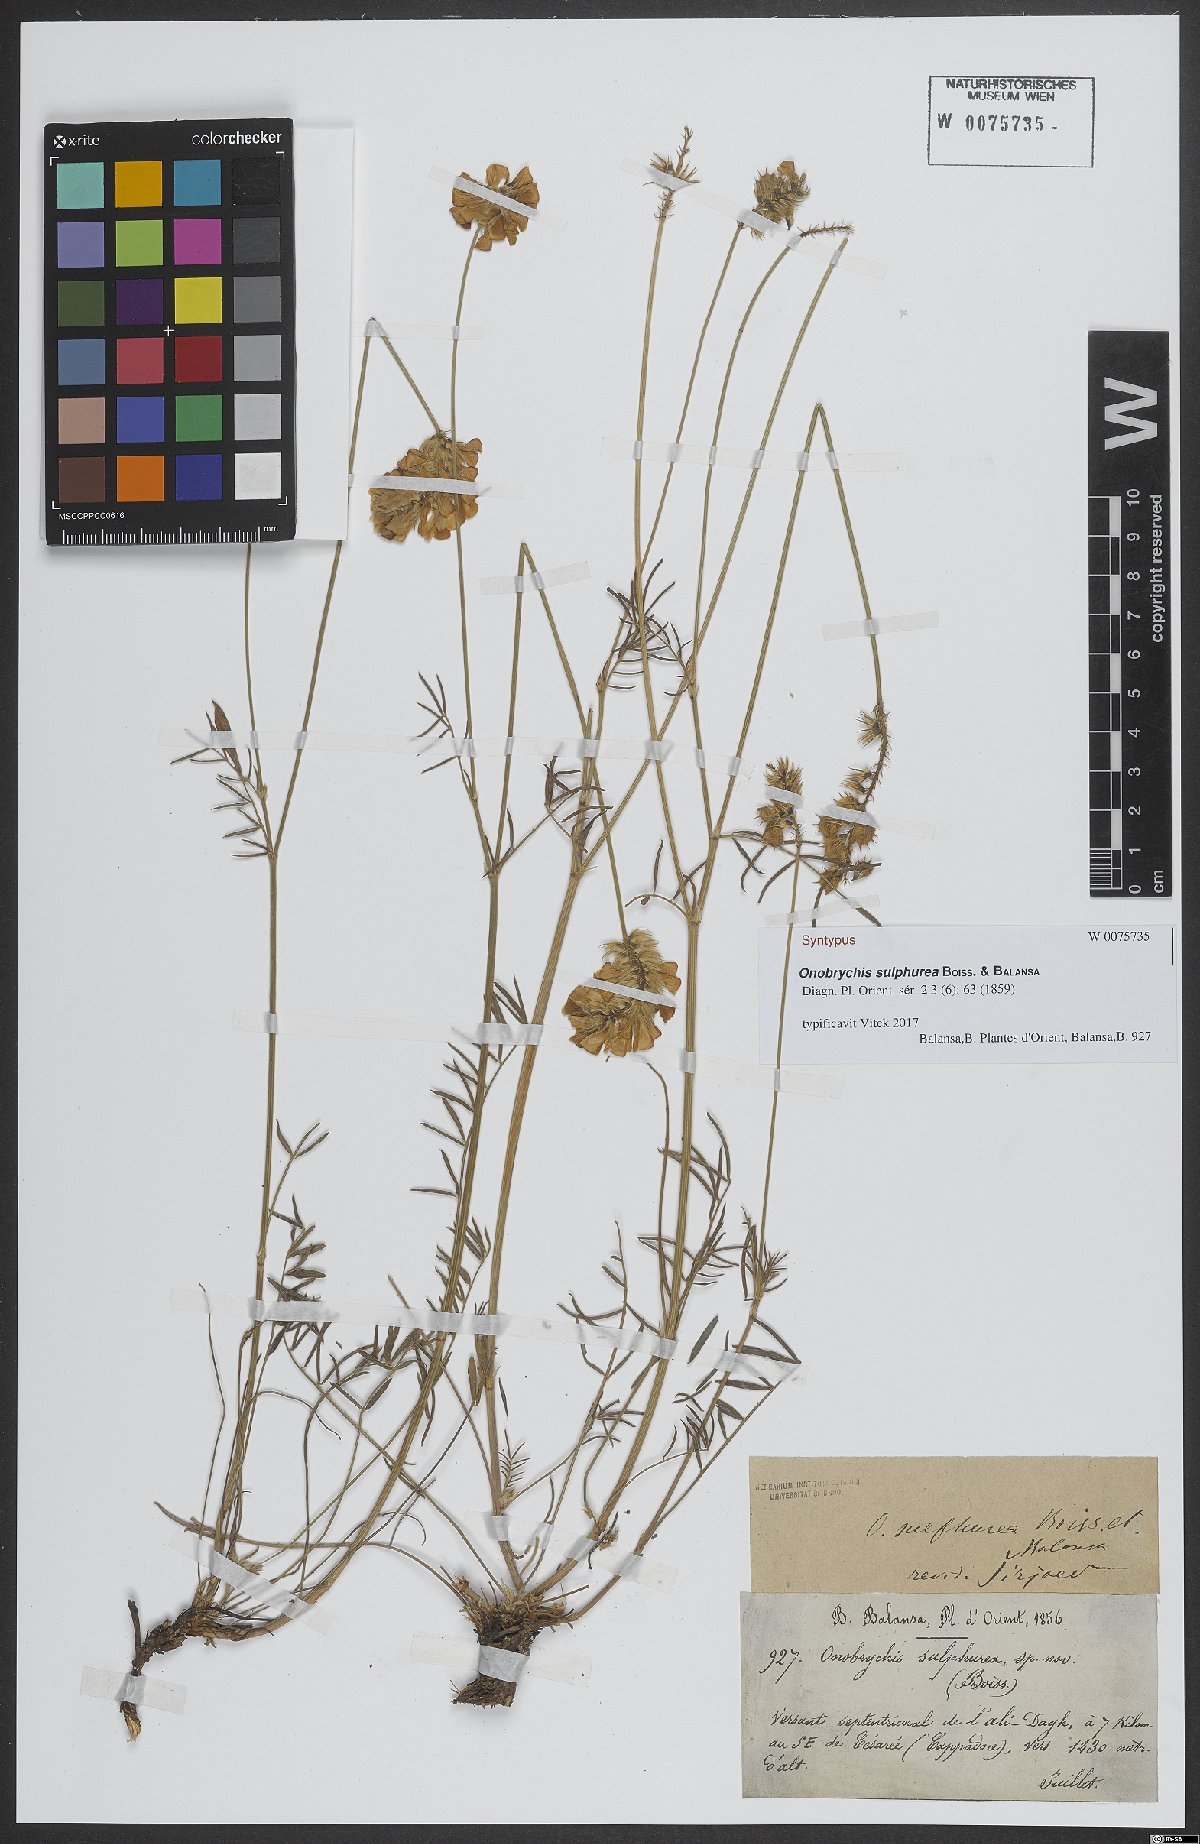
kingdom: Plantae
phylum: Tracheophyta
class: Magnoliopsida
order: Fabales
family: Fabaceae
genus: Onobrychis
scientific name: Onobrychis sulphurea
